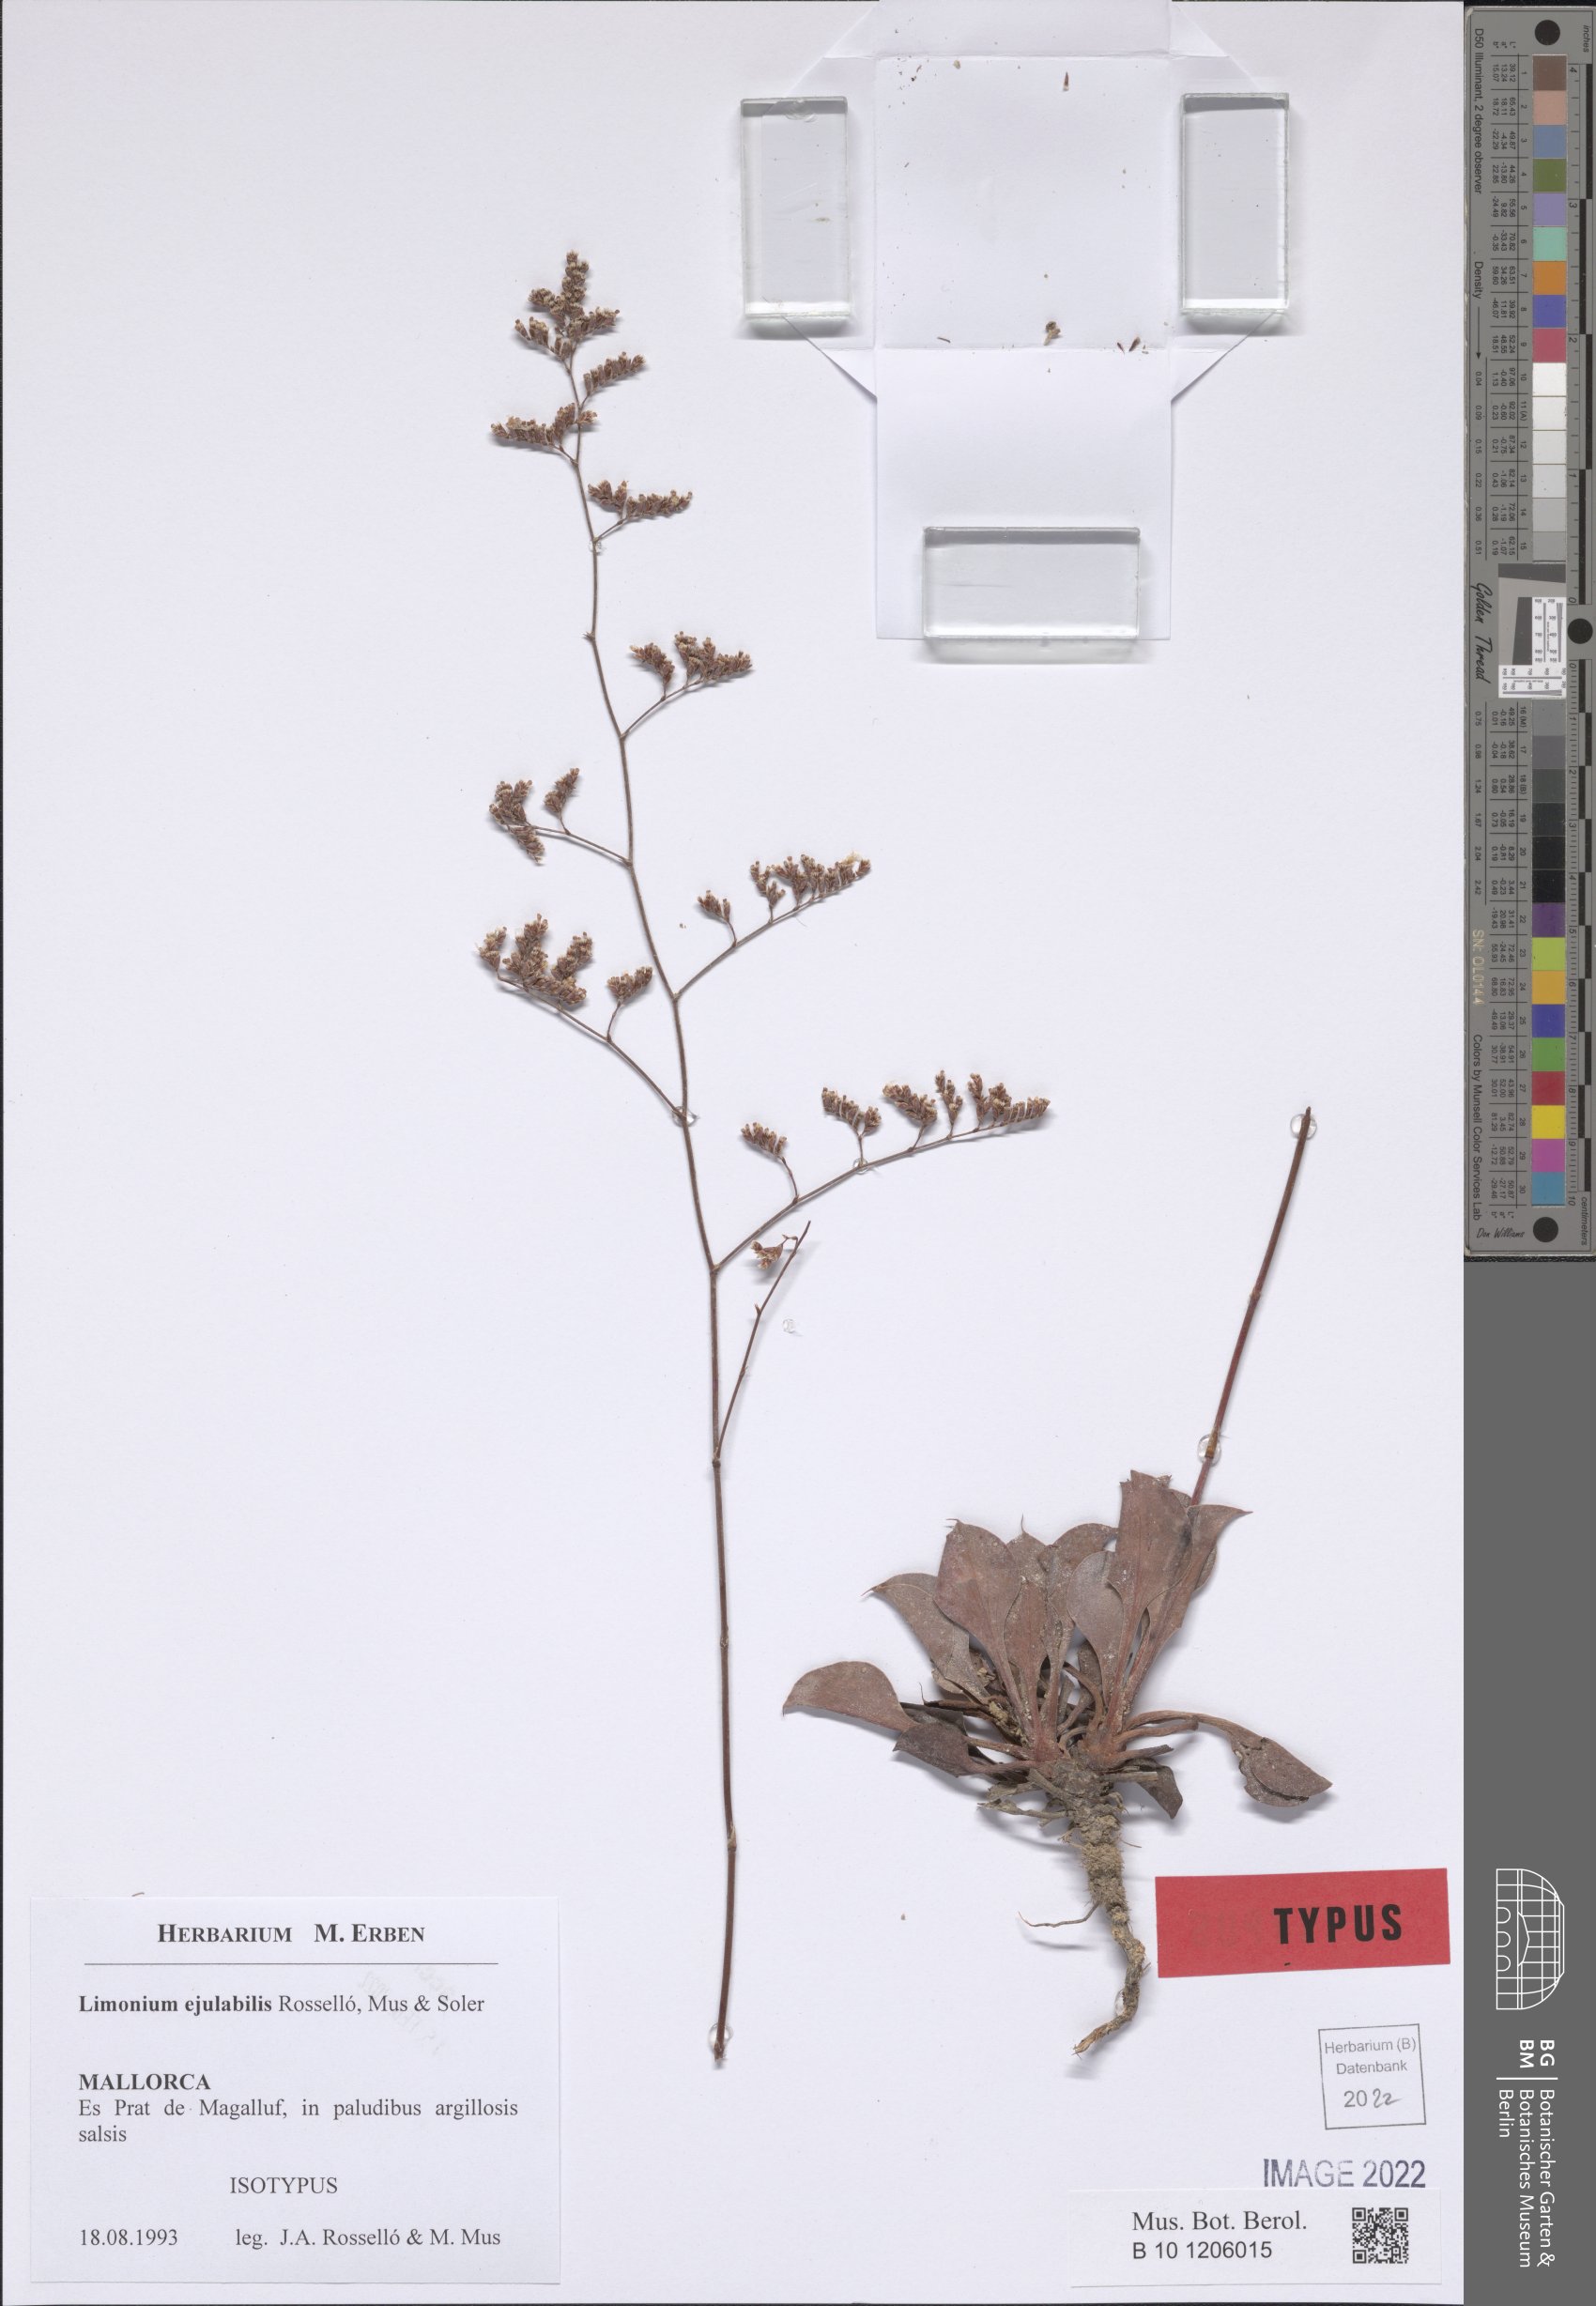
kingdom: Plantae
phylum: Tracheophyta
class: Magnoliopsida
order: Caryophyllales
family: Plumbaginaceae
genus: Limonium
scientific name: Limonium ejulabilis
